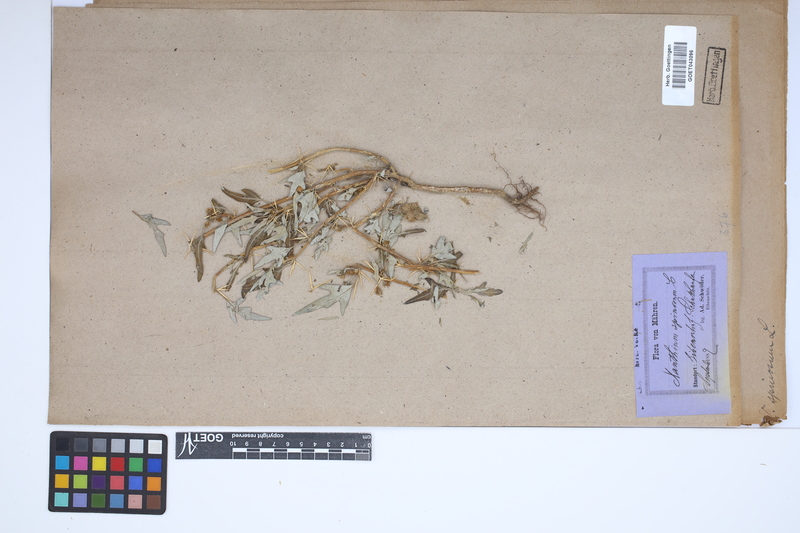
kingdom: Plantae
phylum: Tracheophyta
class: Magnoliopsida
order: Asterales
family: Asteraceae
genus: Xanthium
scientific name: Xanthium spinosum
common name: Spiny cocklebur
